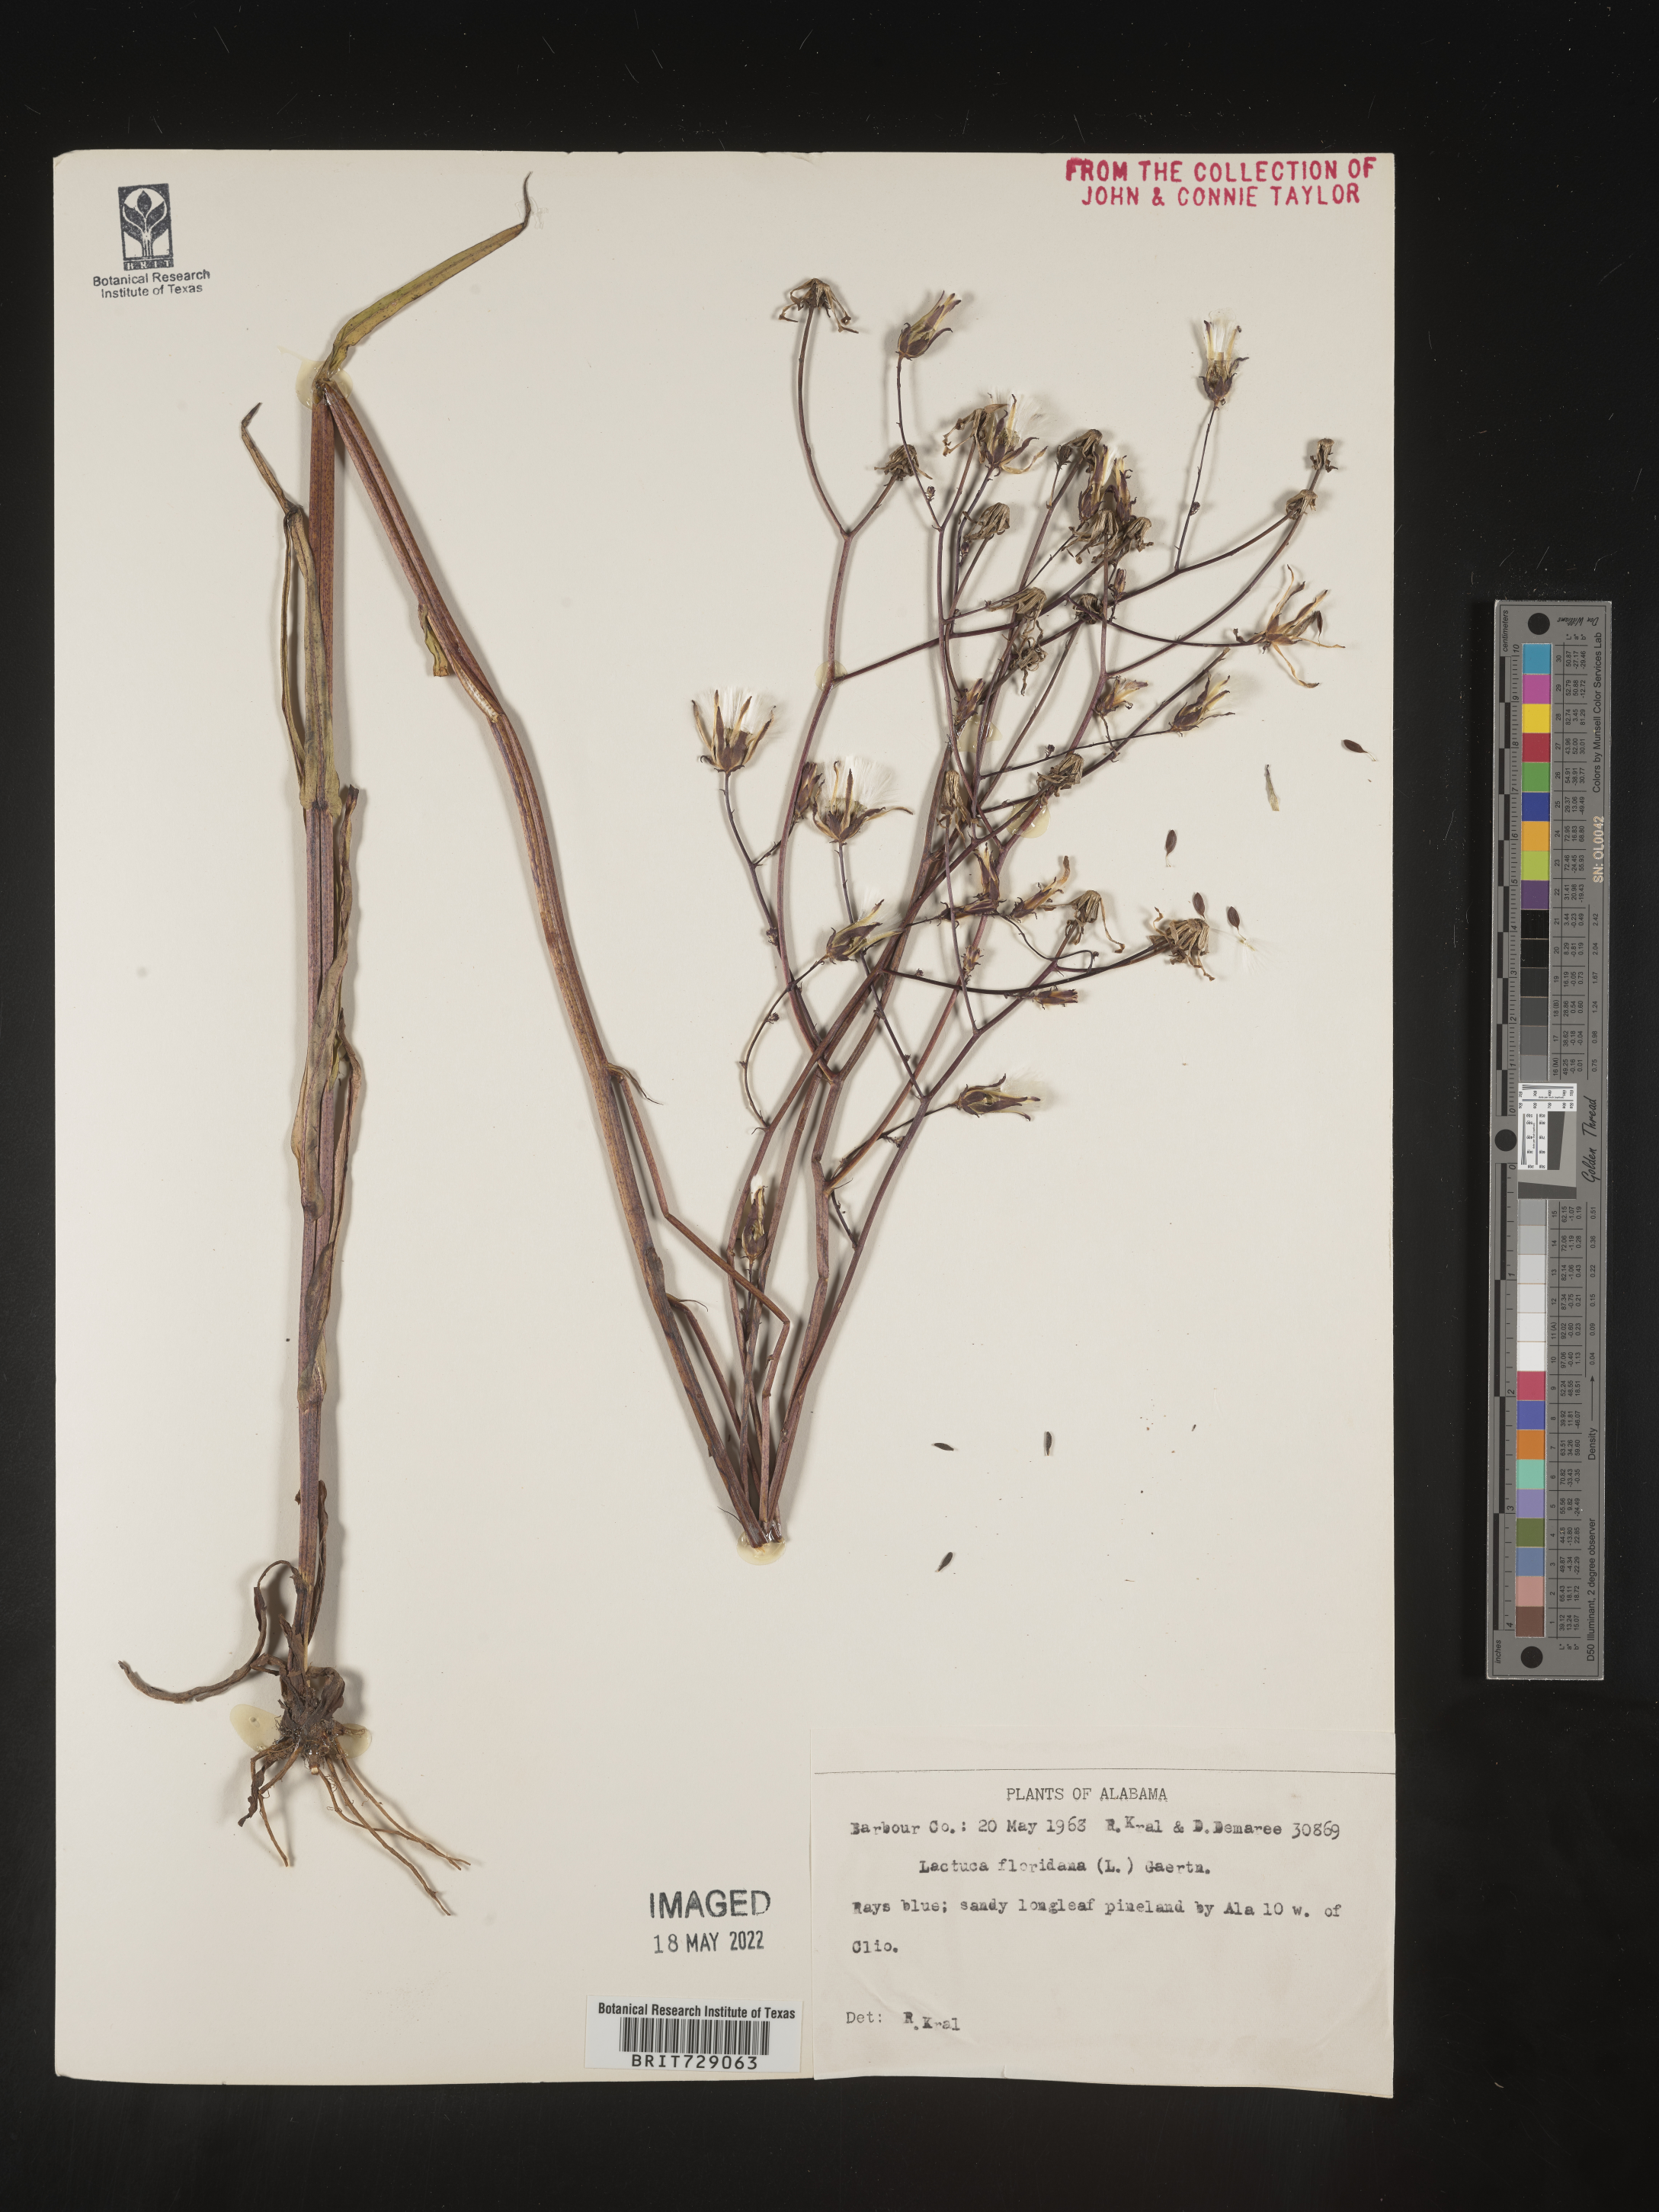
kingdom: Plantae
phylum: Tracheophyta
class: Magnoliopsida
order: Asterales
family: Asteraceae
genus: Lactuca
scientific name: Lactuca floridana
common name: Woodland lettuce
